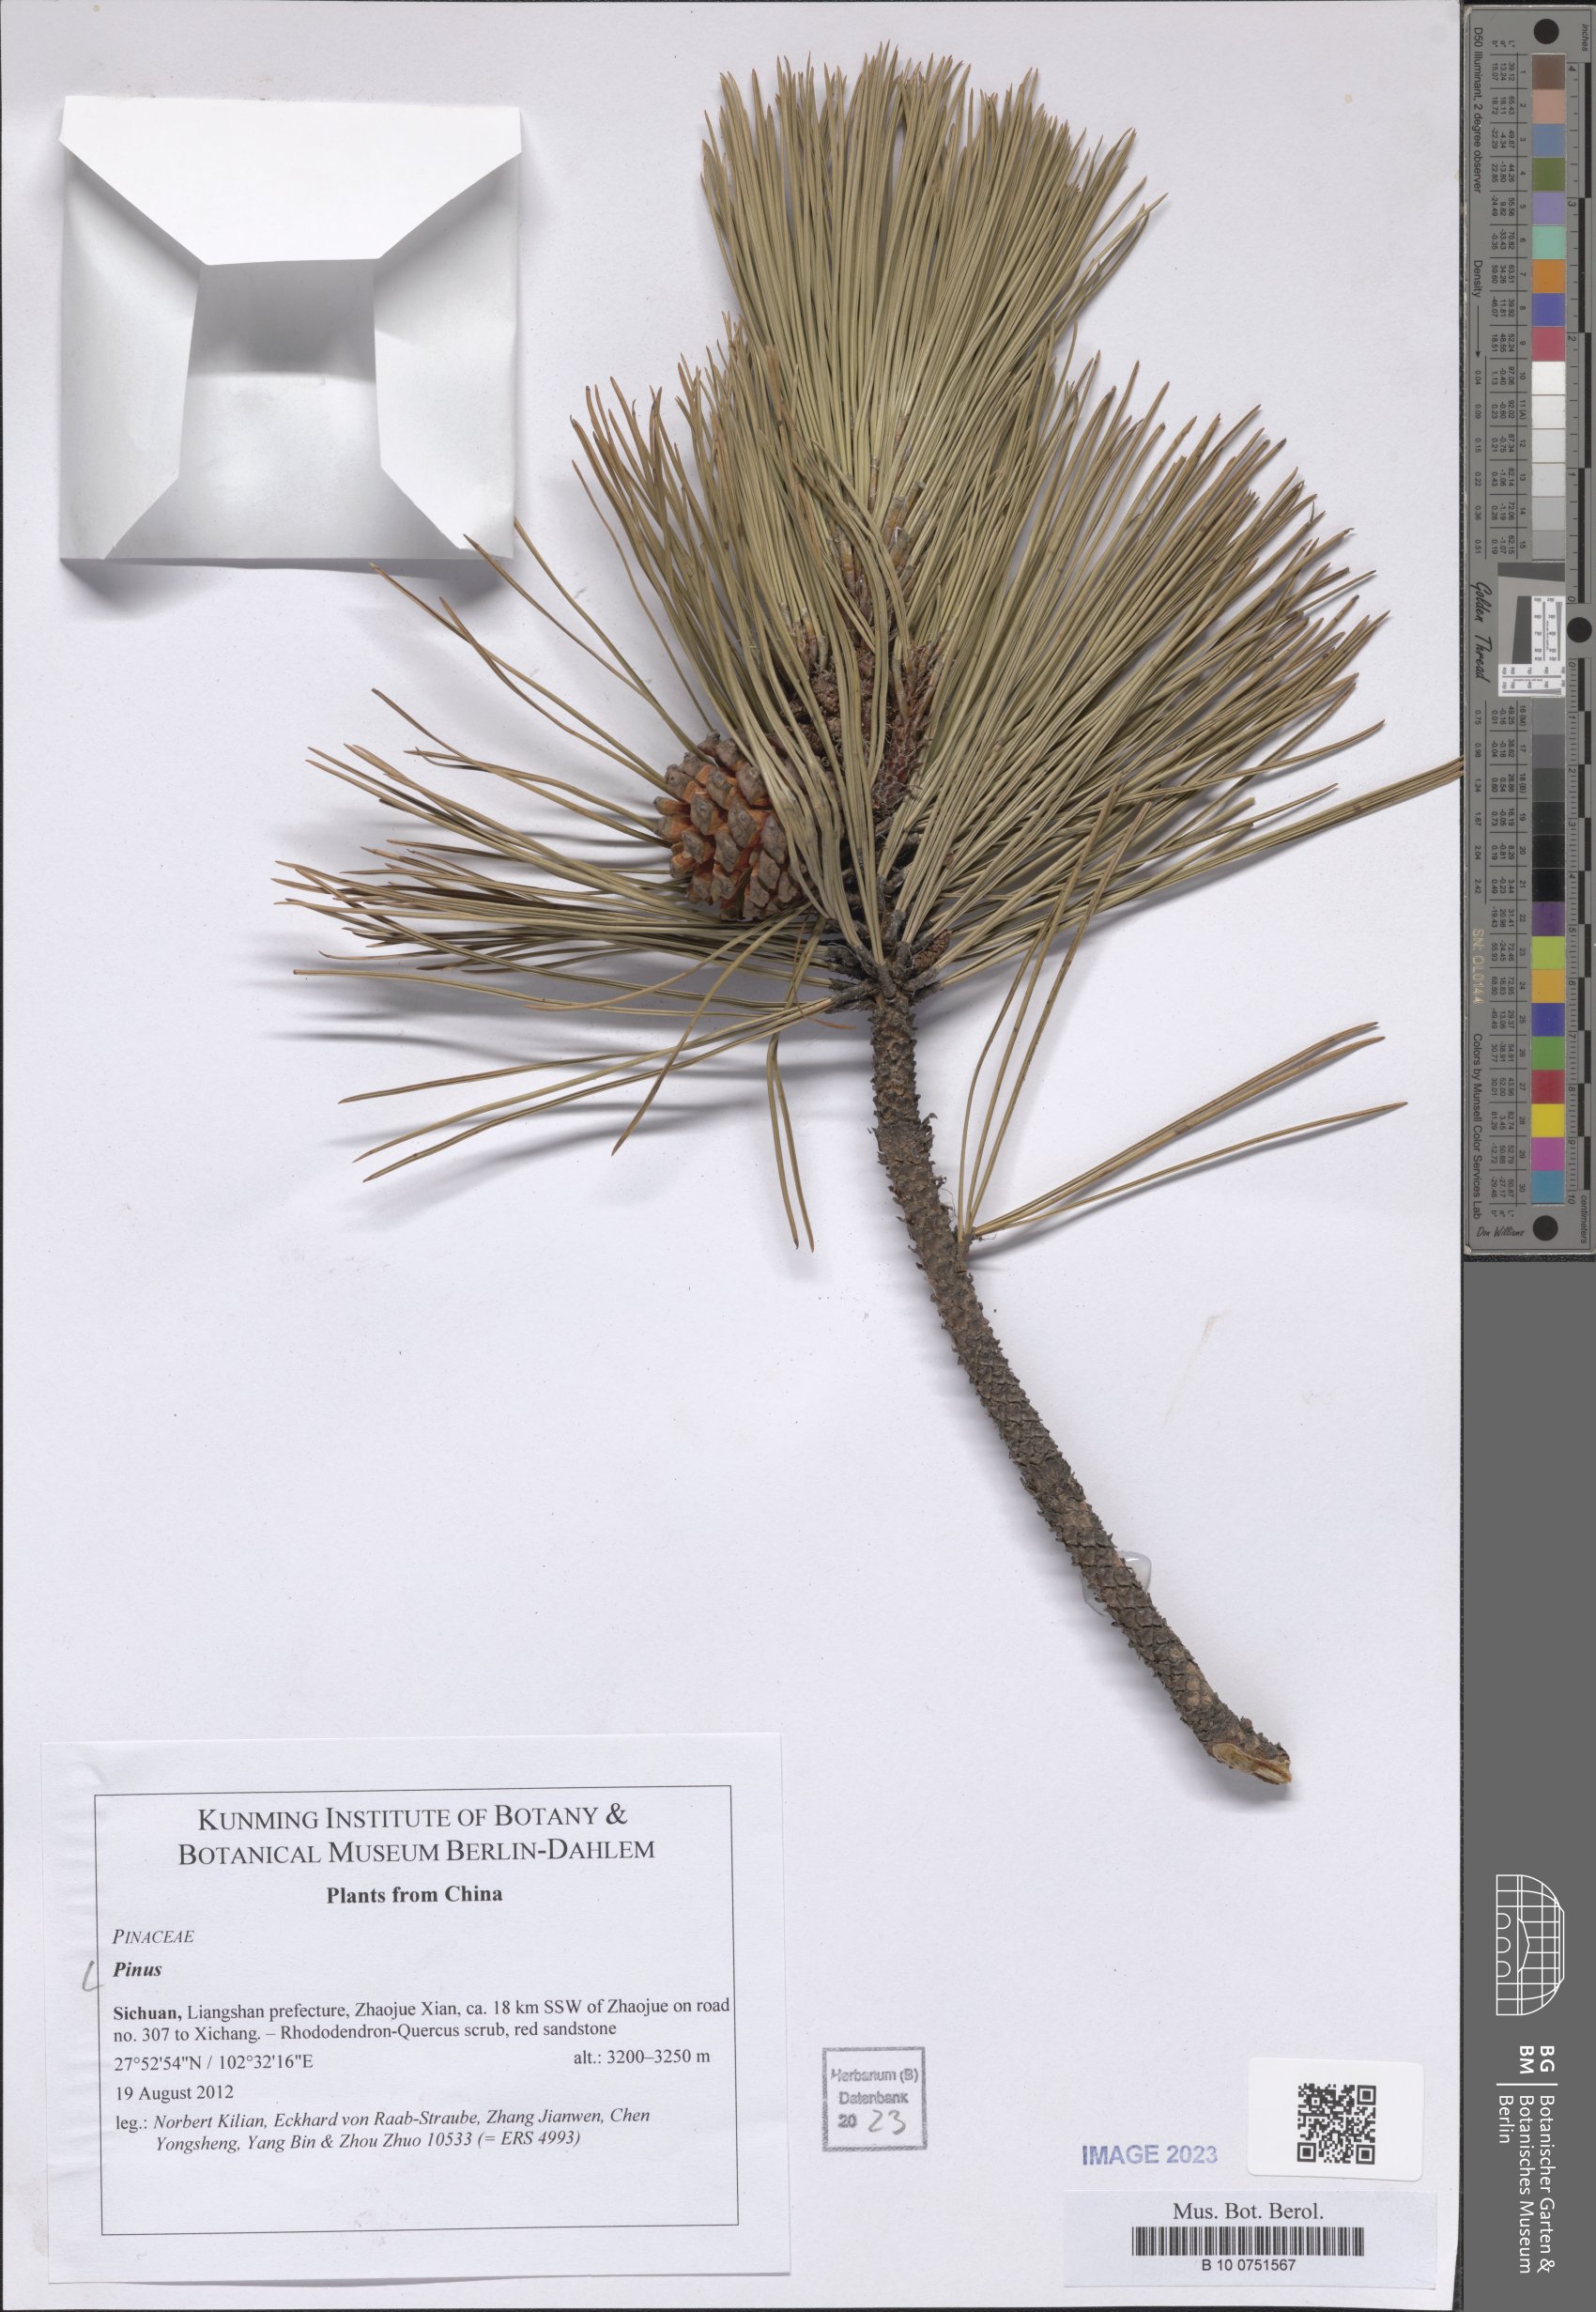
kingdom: Plantae
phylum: Tracheophyta
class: Pinopsida
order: Pinales
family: Pinaceae
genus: Pinus
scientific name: Pinus
